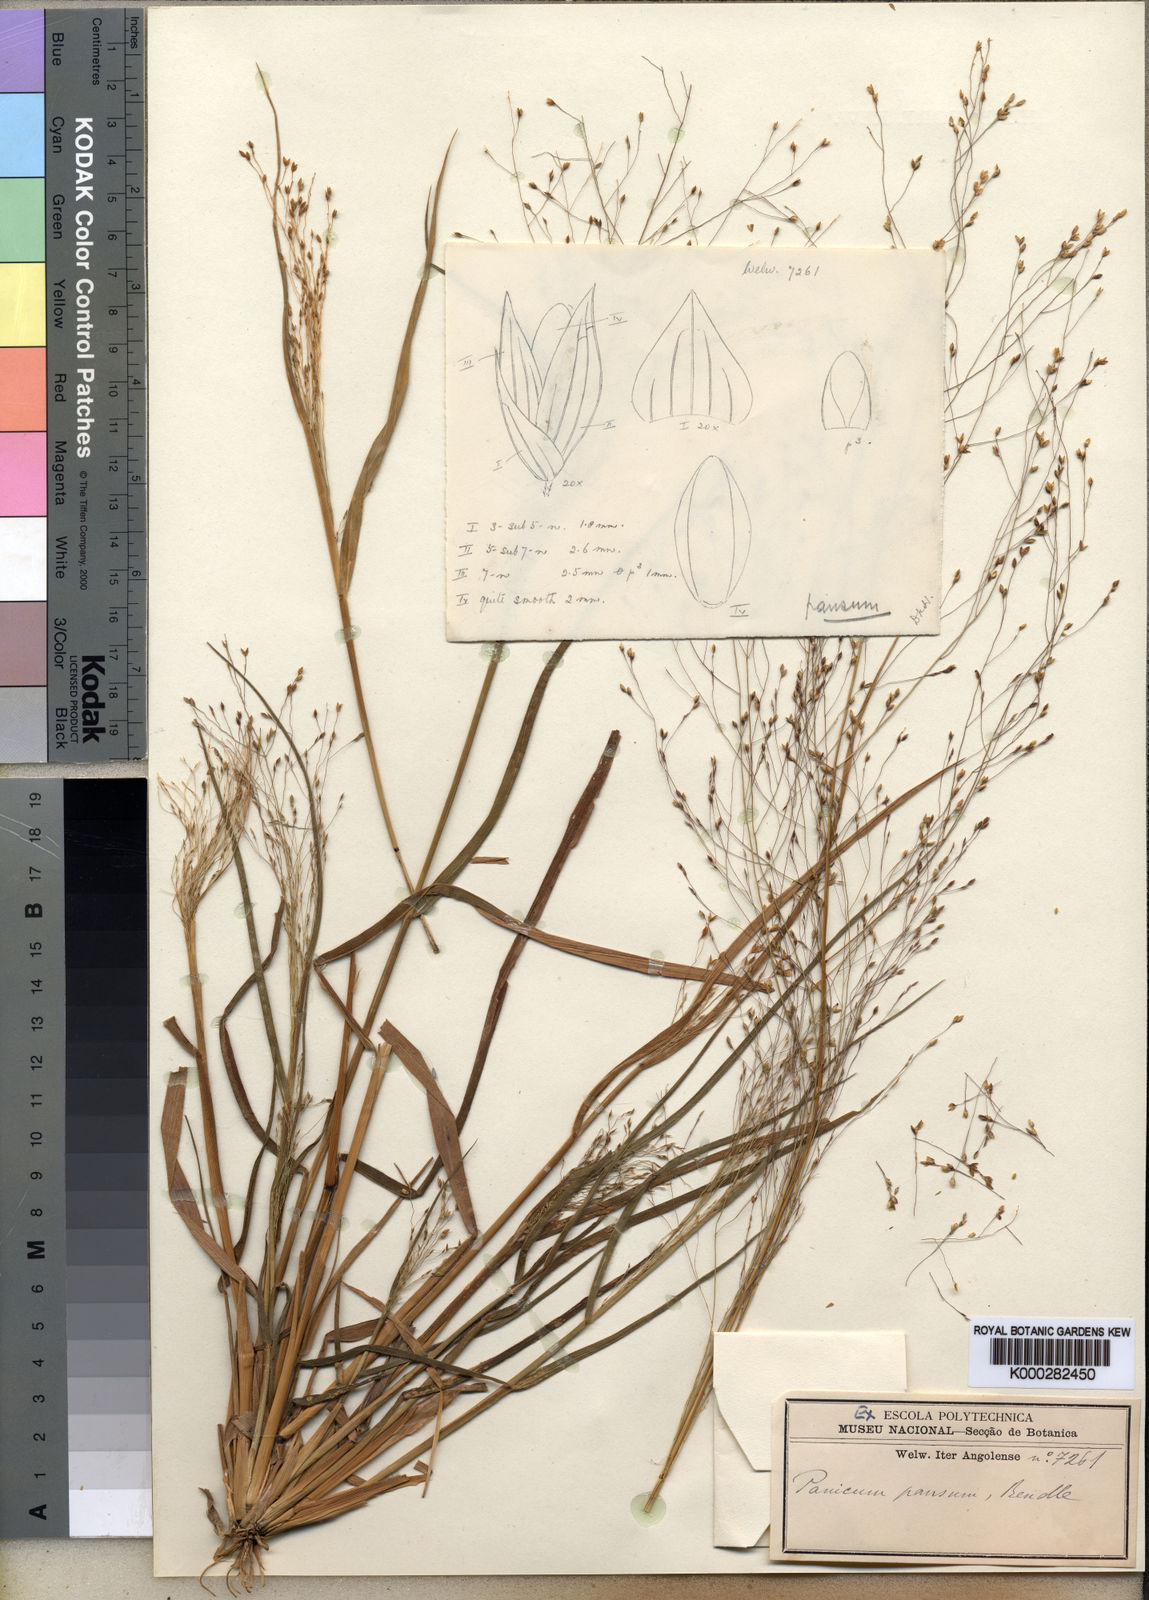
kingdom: Plantae
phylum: Tracheophyta
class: Liliopsida
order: Poales
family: Poaceae
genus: Panicum
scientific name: Panicum pansum
